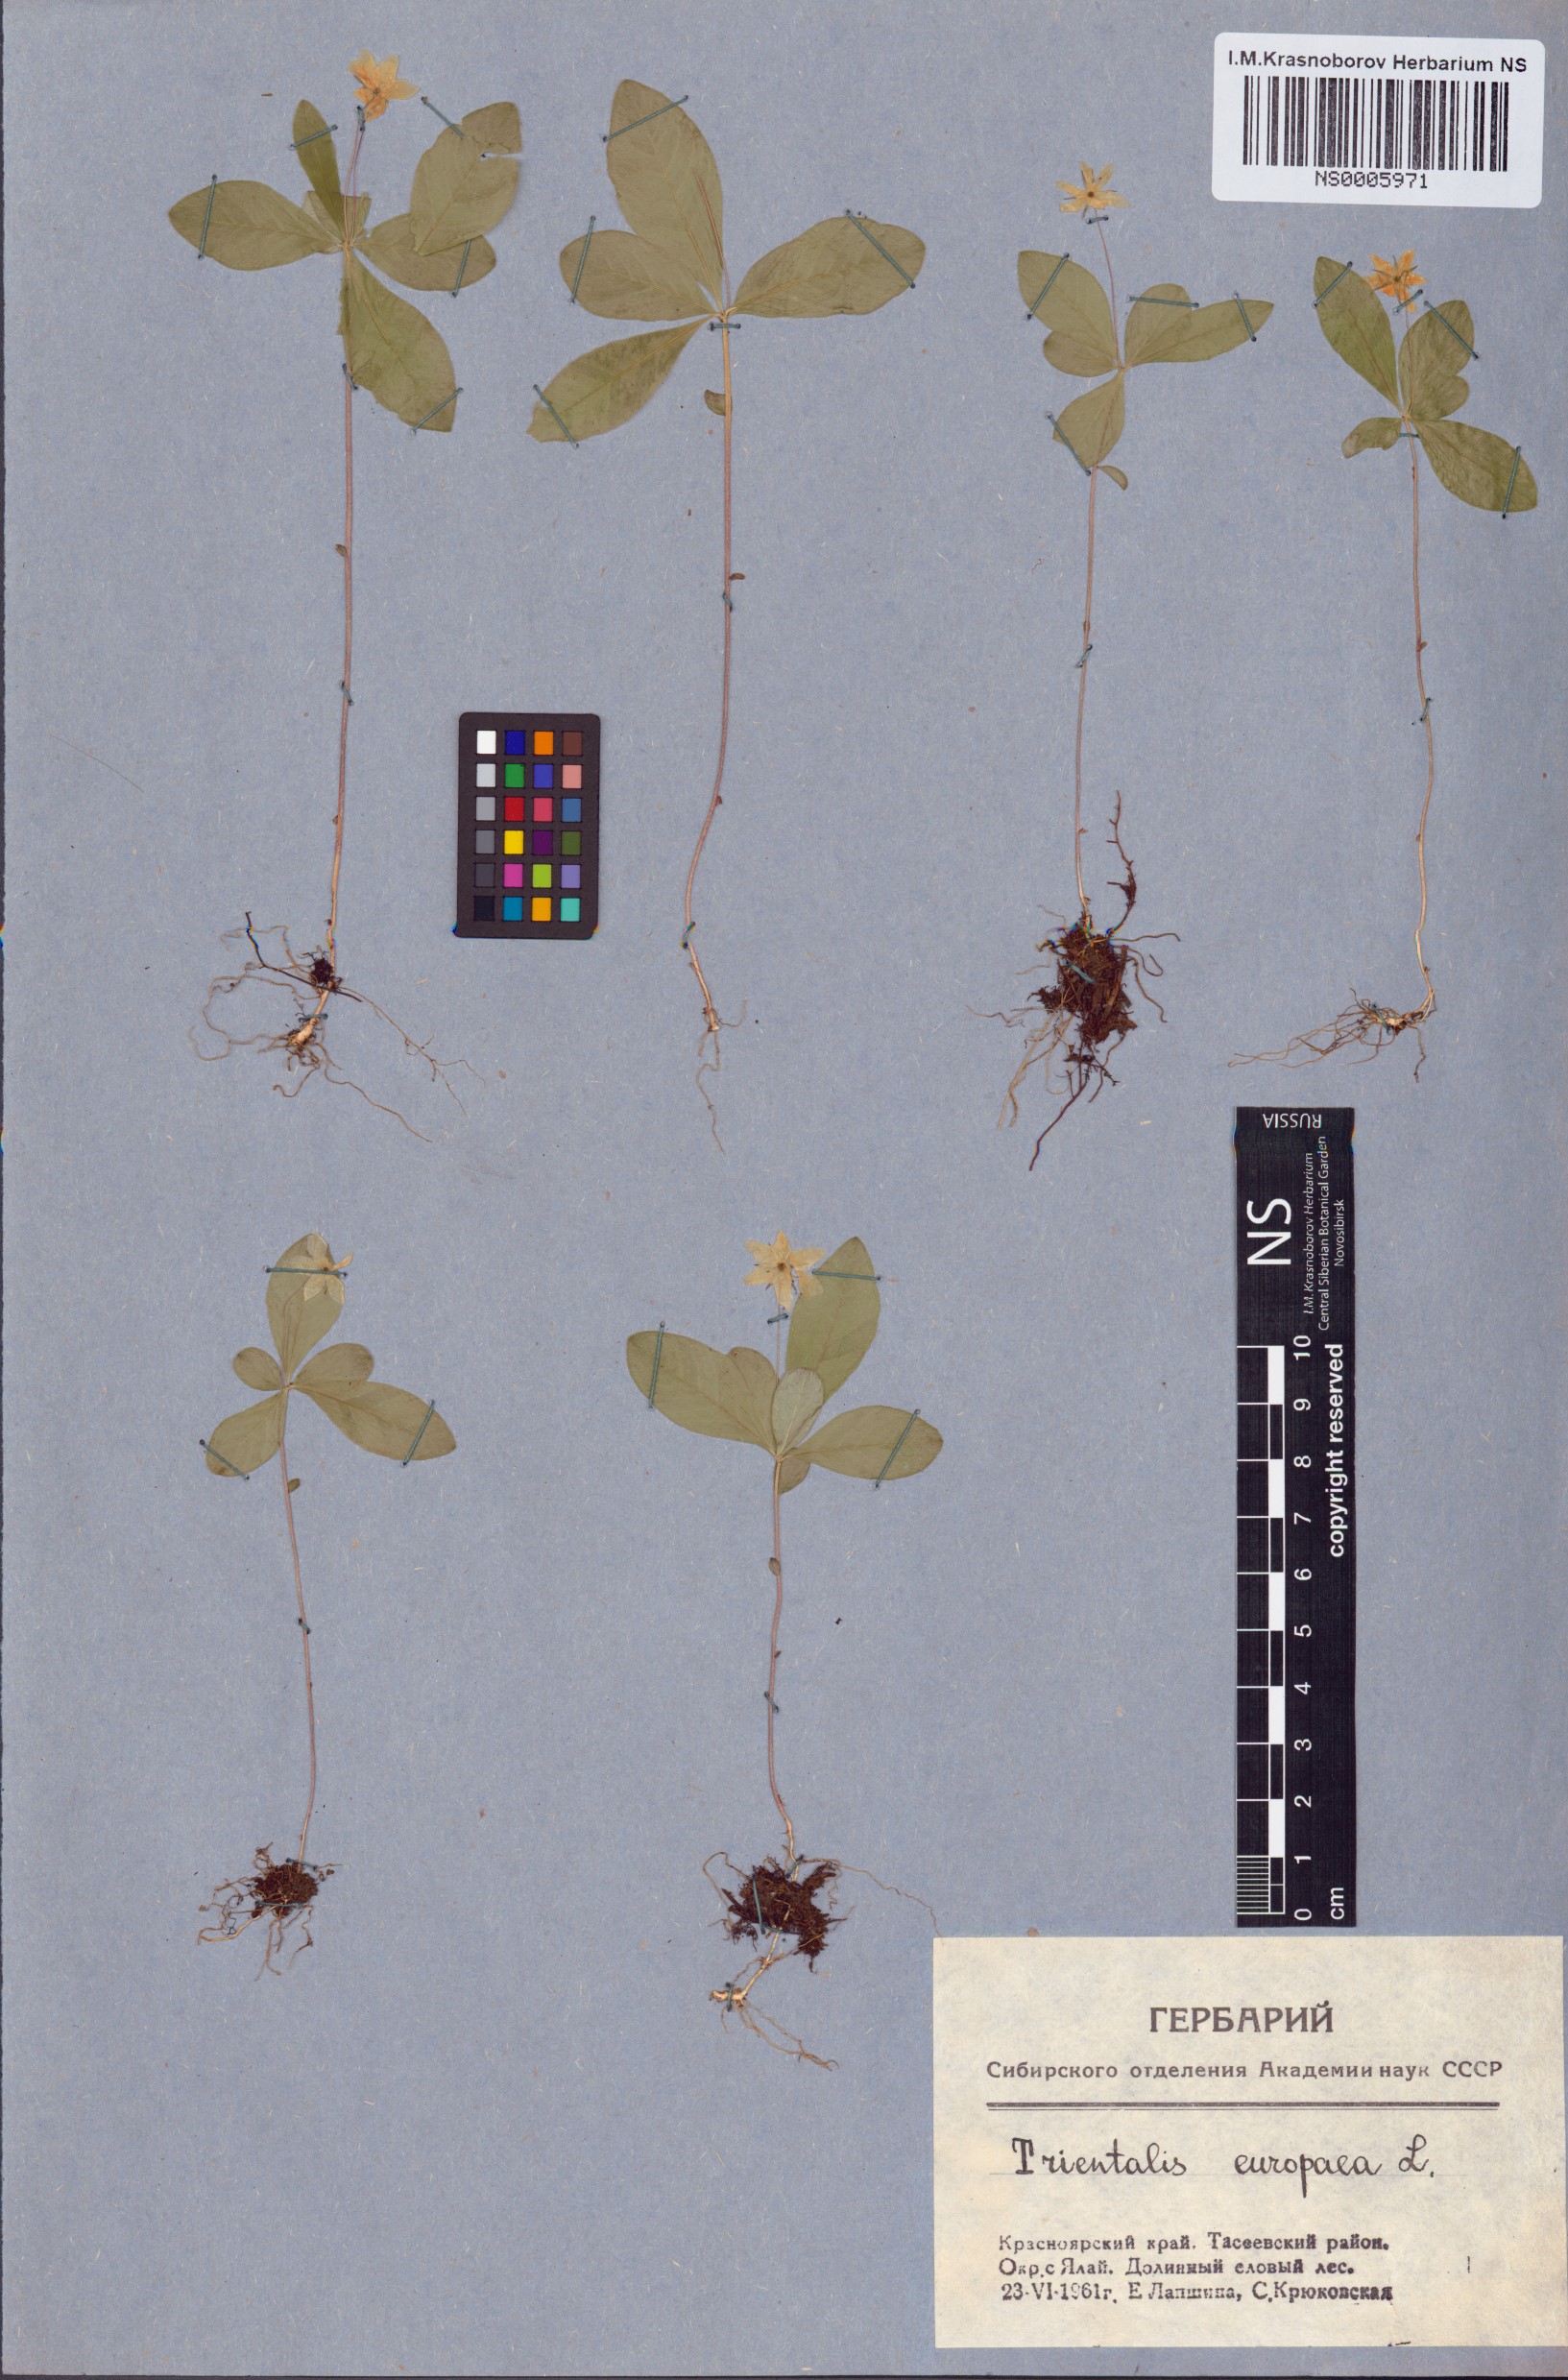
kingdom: Plantae
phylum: Tracheophyta
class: Magnoliopsida
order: Ericales
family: Primulaceae
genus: Lysimachia
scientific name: Lysimachia europaea
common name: Arctic starflower
